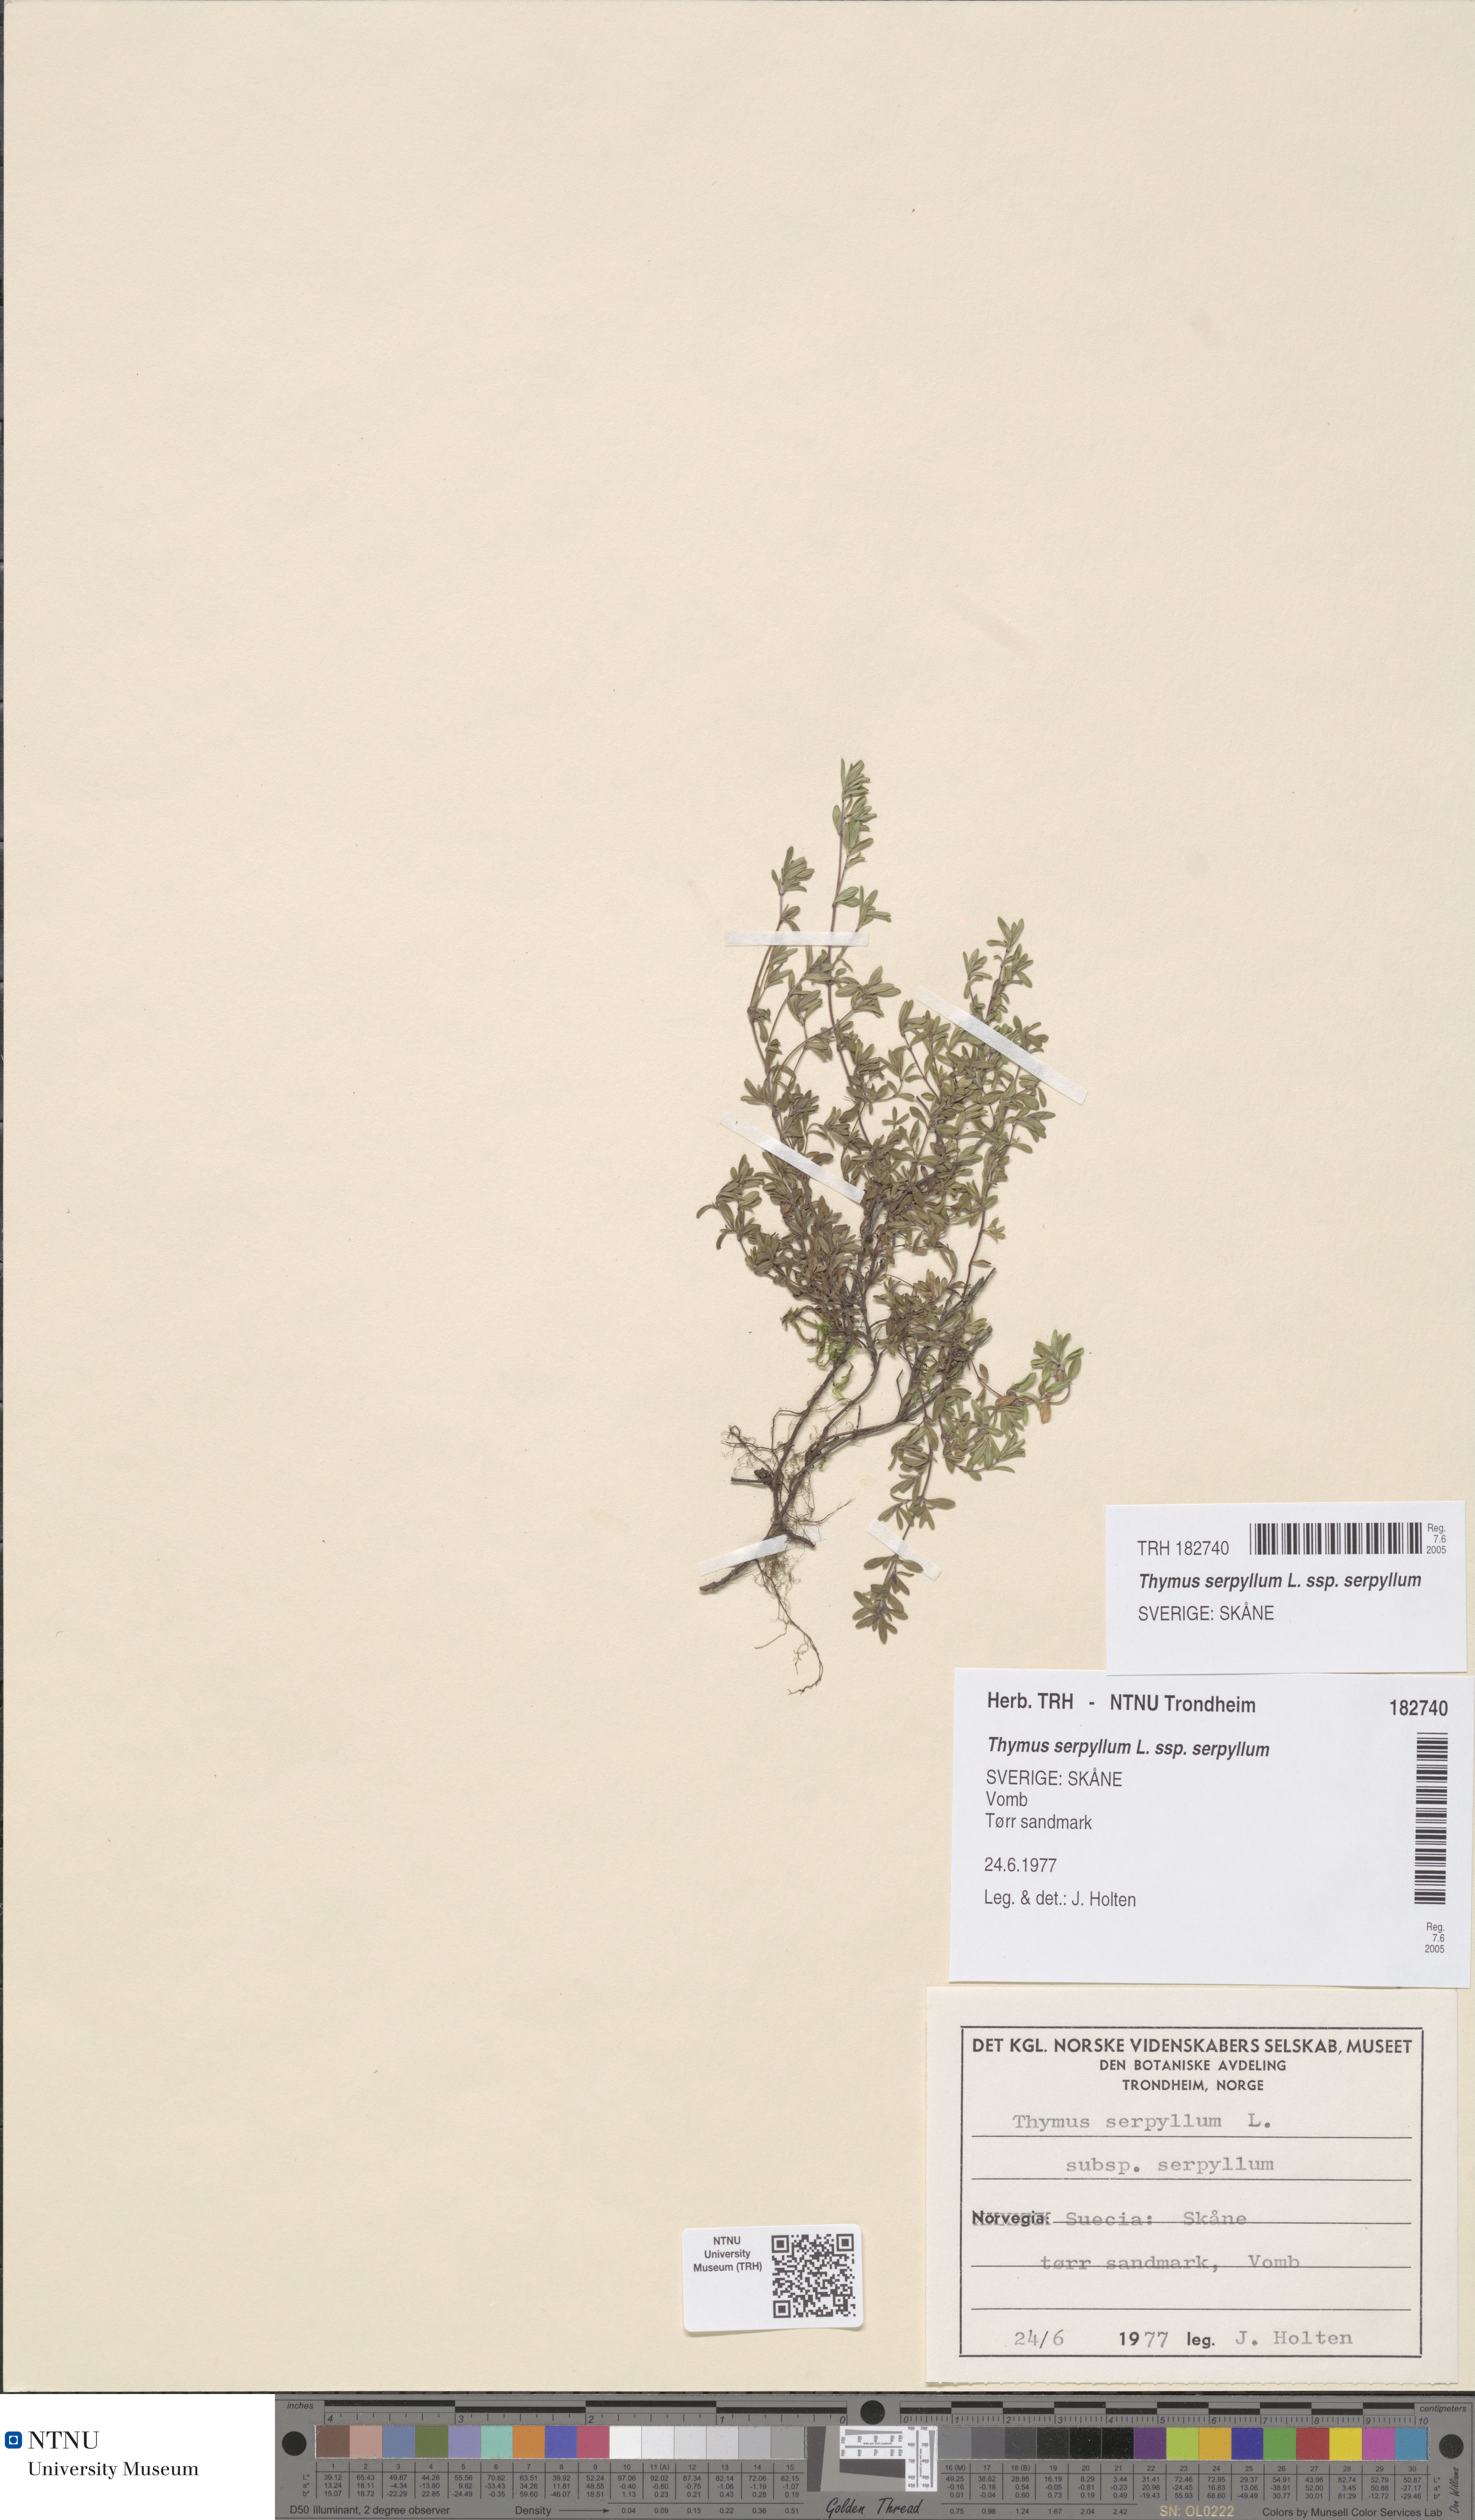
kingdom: Plantae
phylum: Tracheophyta
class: Magnoliopsida
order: Lamiales
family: Lamiaceae
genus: Thymus
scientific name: Thymus serpyllum
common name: Breckland thyme
